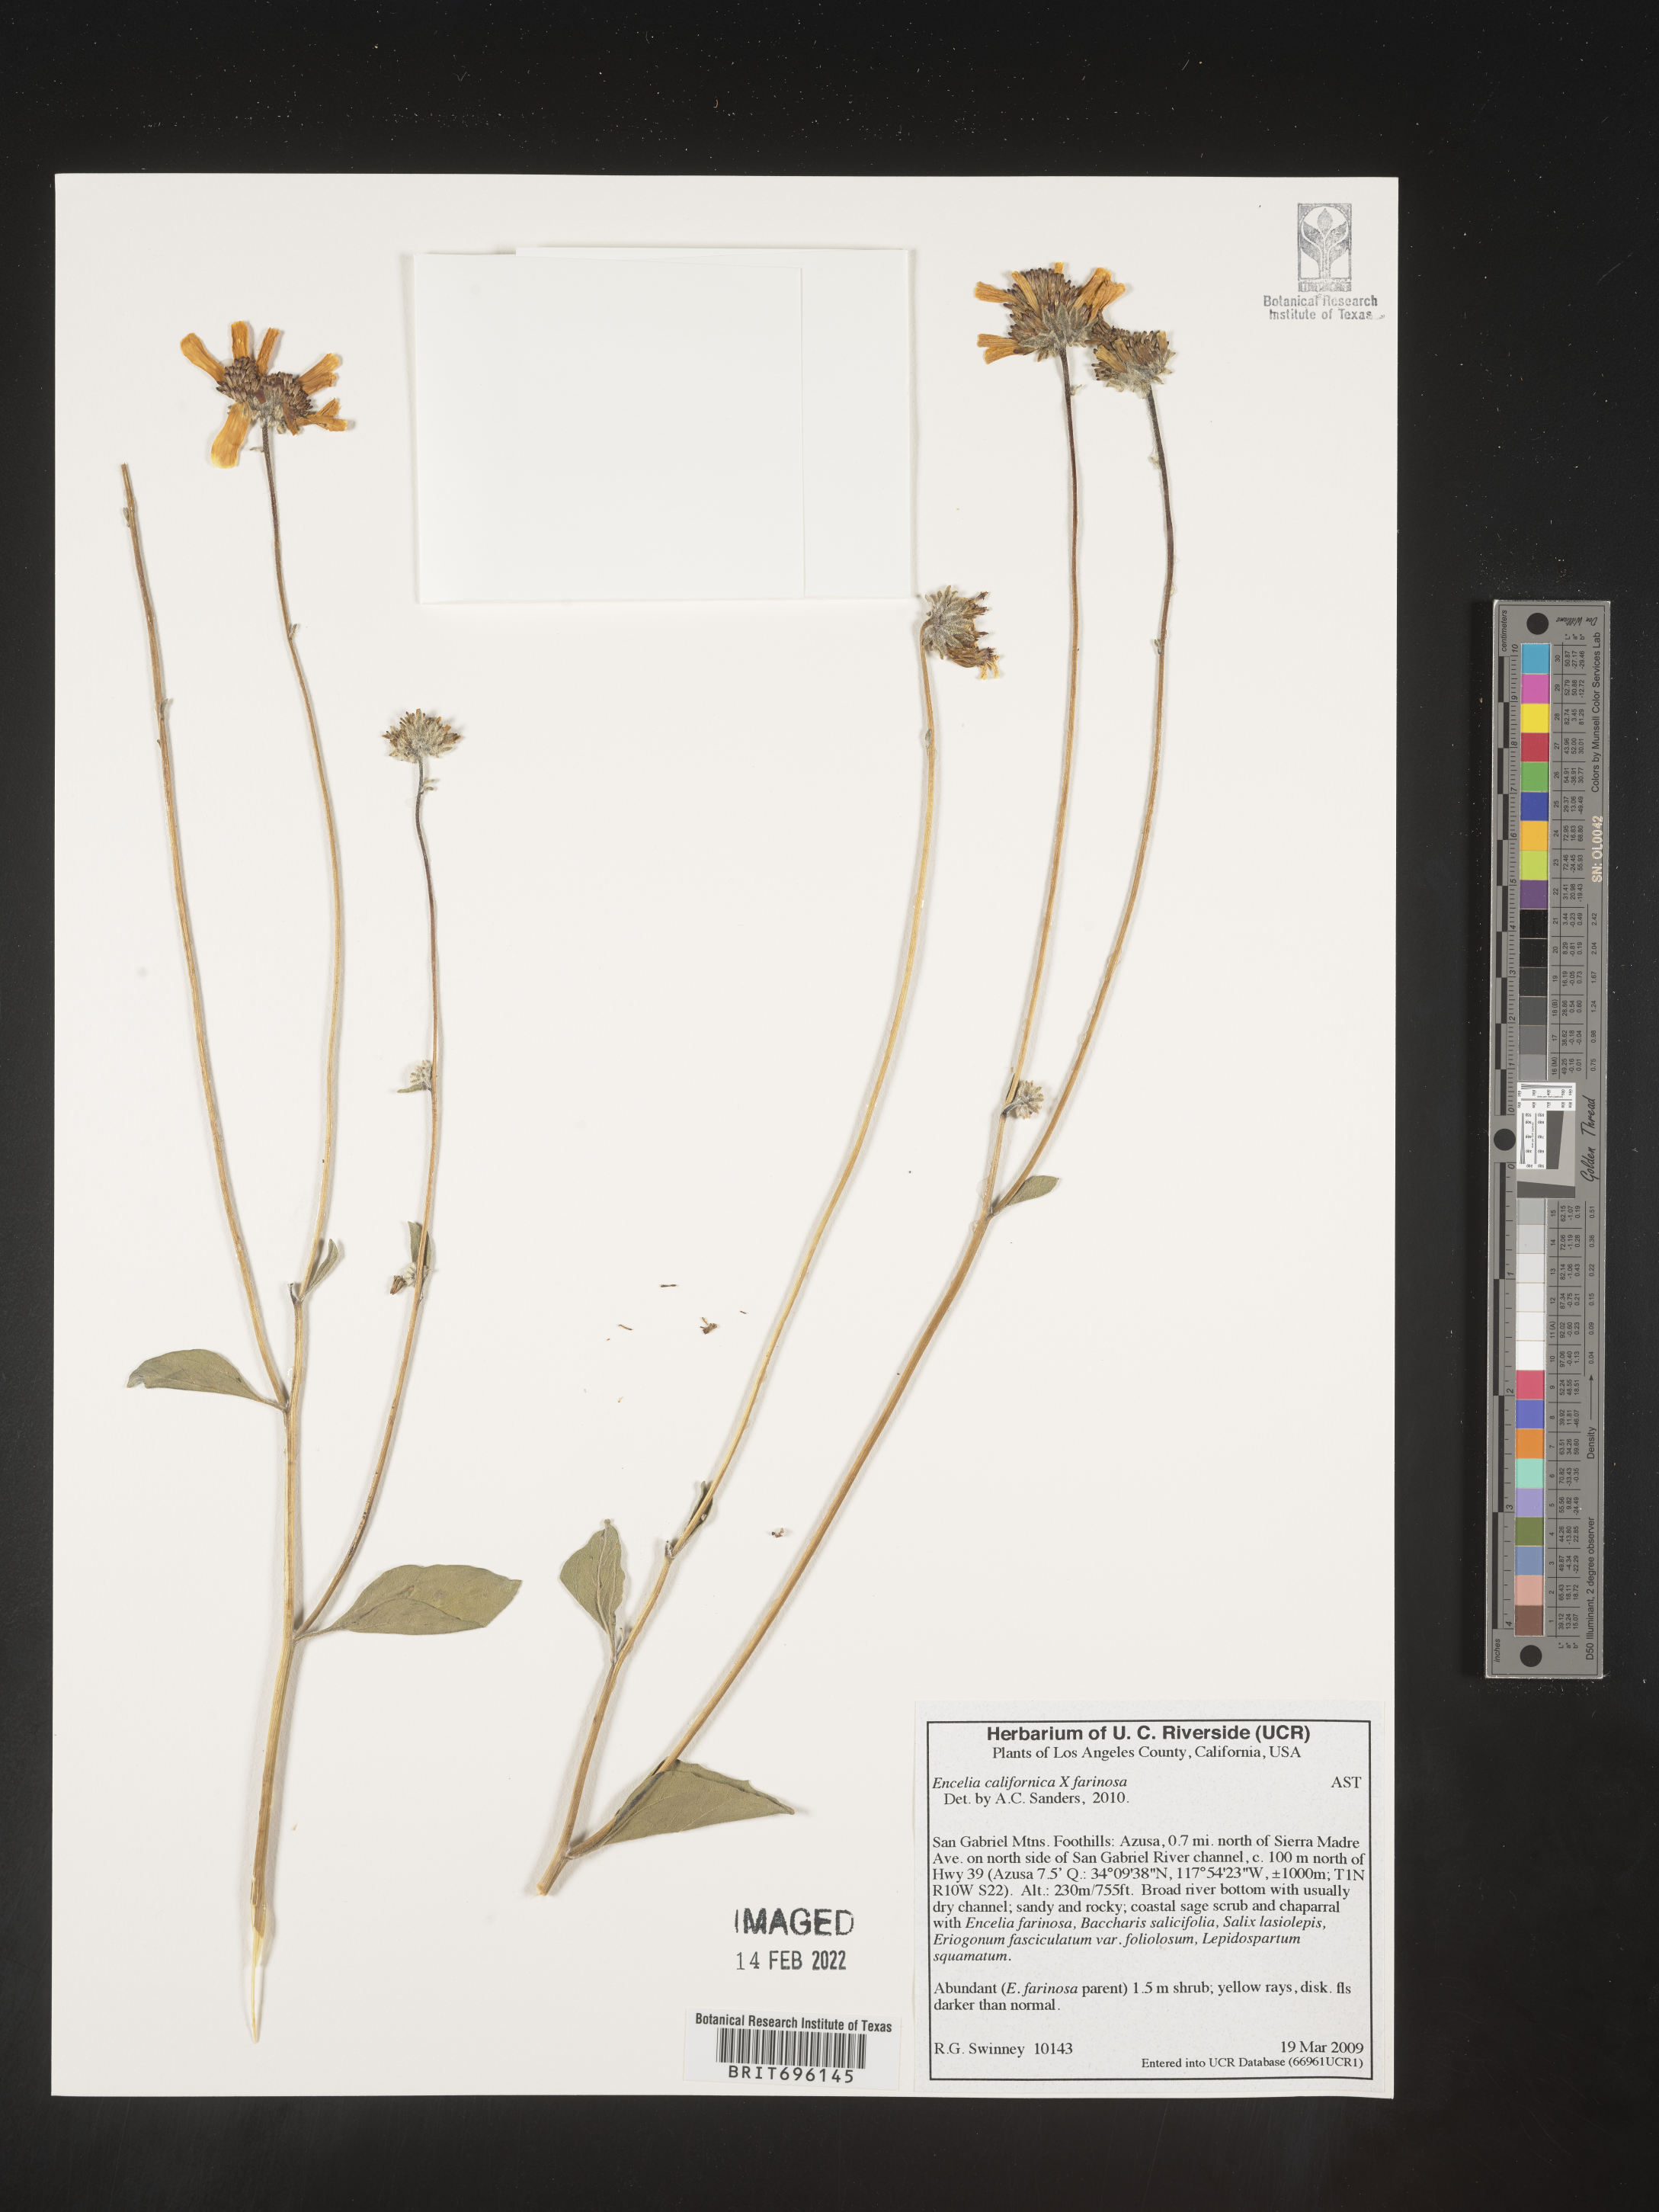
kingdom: Plantae
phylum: Tracheophyta
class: Magnoliopsida
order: Asterales
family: Asteraceae
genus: Encelia
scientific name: Encelia californica
